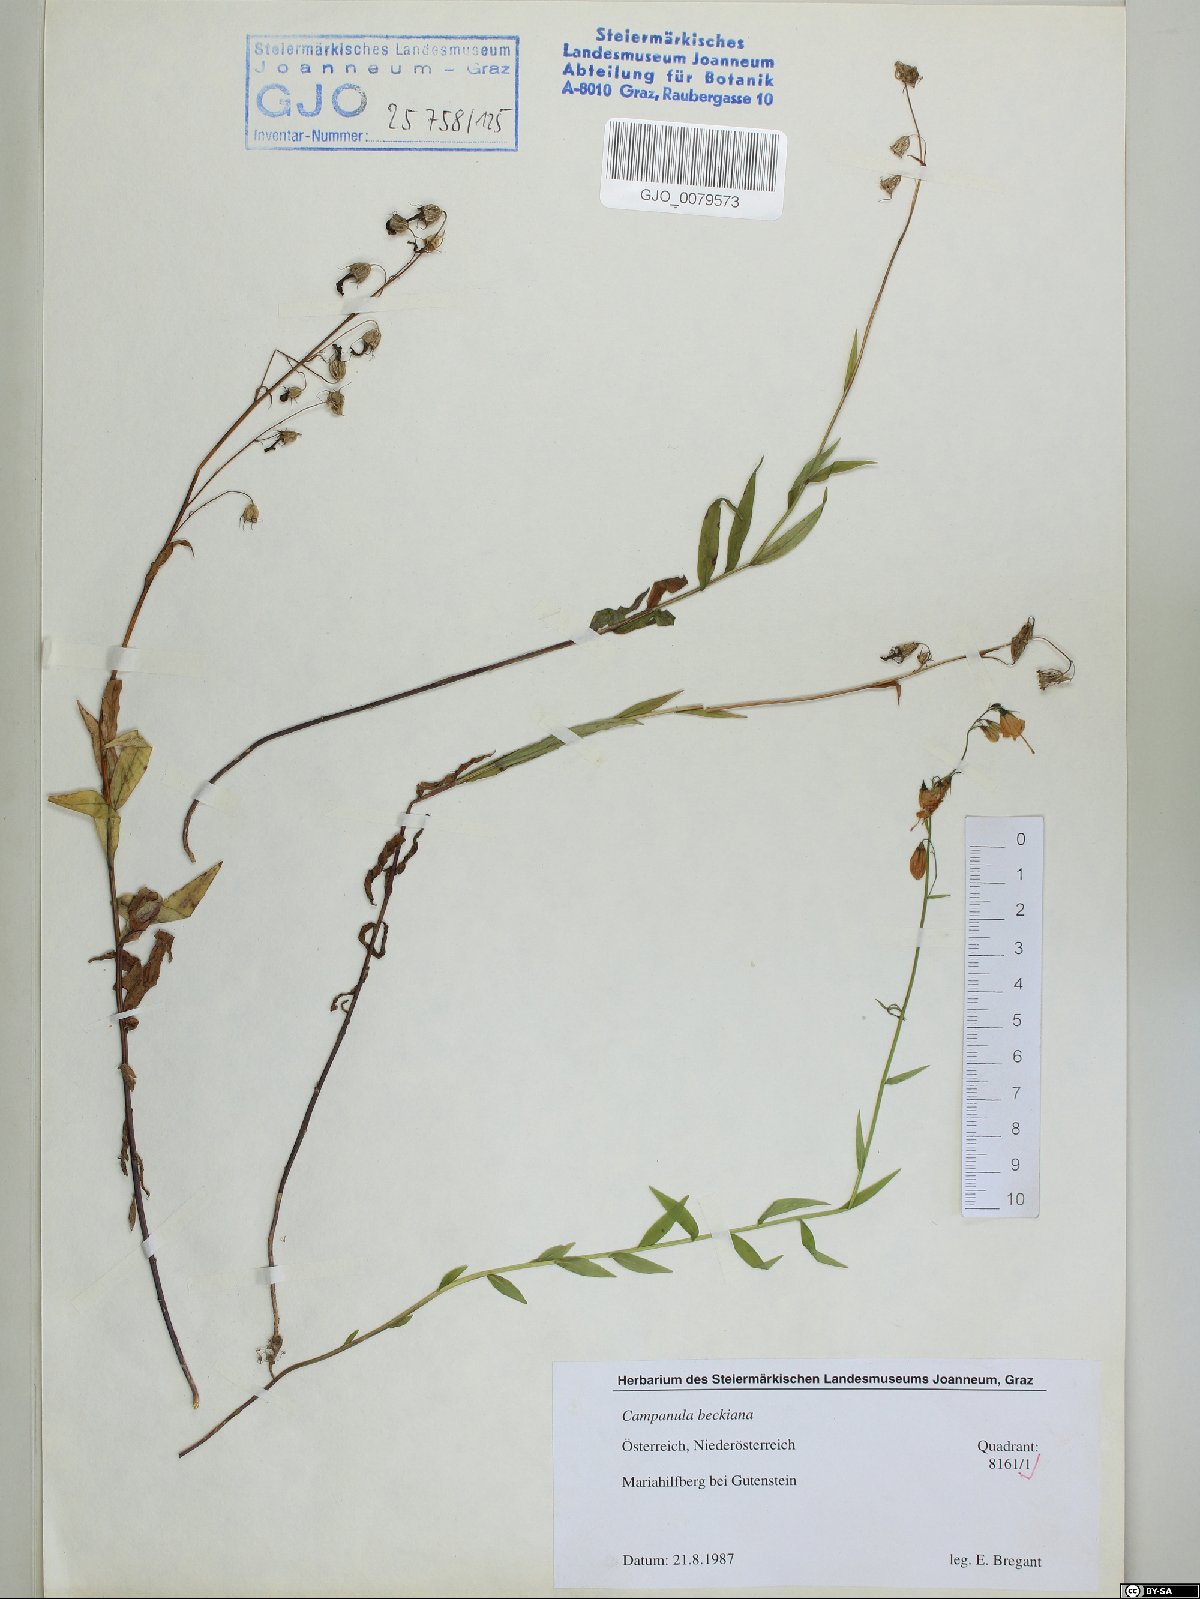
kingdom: Plantae
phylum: Tracheophyta
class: Magnoliopsida
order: Asterales
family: Campanulaceae
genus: Campanula
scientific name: Campanula baumgartenii
